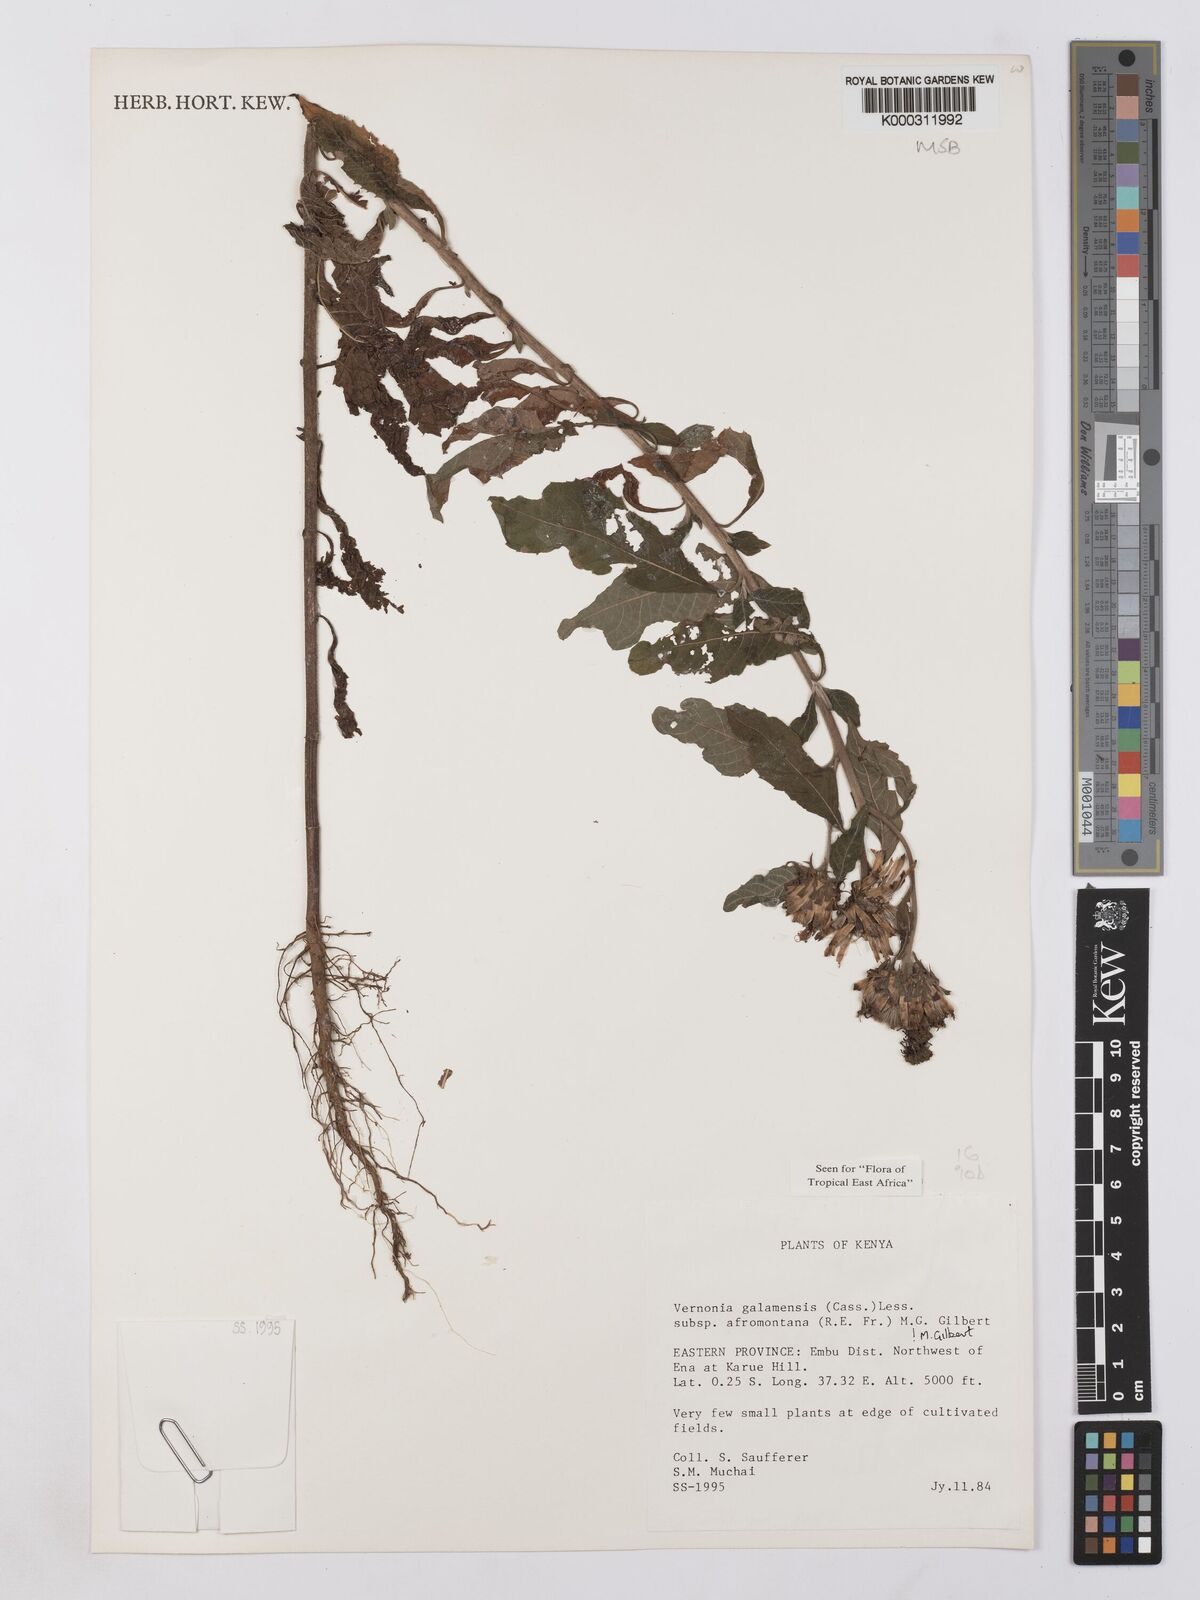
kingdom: Plantae
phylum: Tracheophyta
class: Magnoliopsida
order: Asterales
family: Asteraceae
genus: Vernonia
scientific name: Vernonia galamensis
